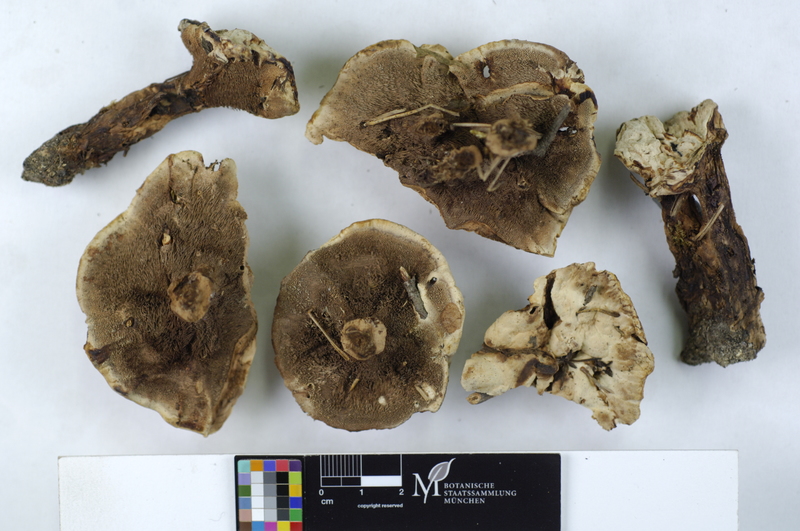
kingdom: Plantae
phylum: Tracheophyta
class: Pinopsida
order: Pinales
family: Pinaceae
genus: Pinus
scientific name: Pinus
